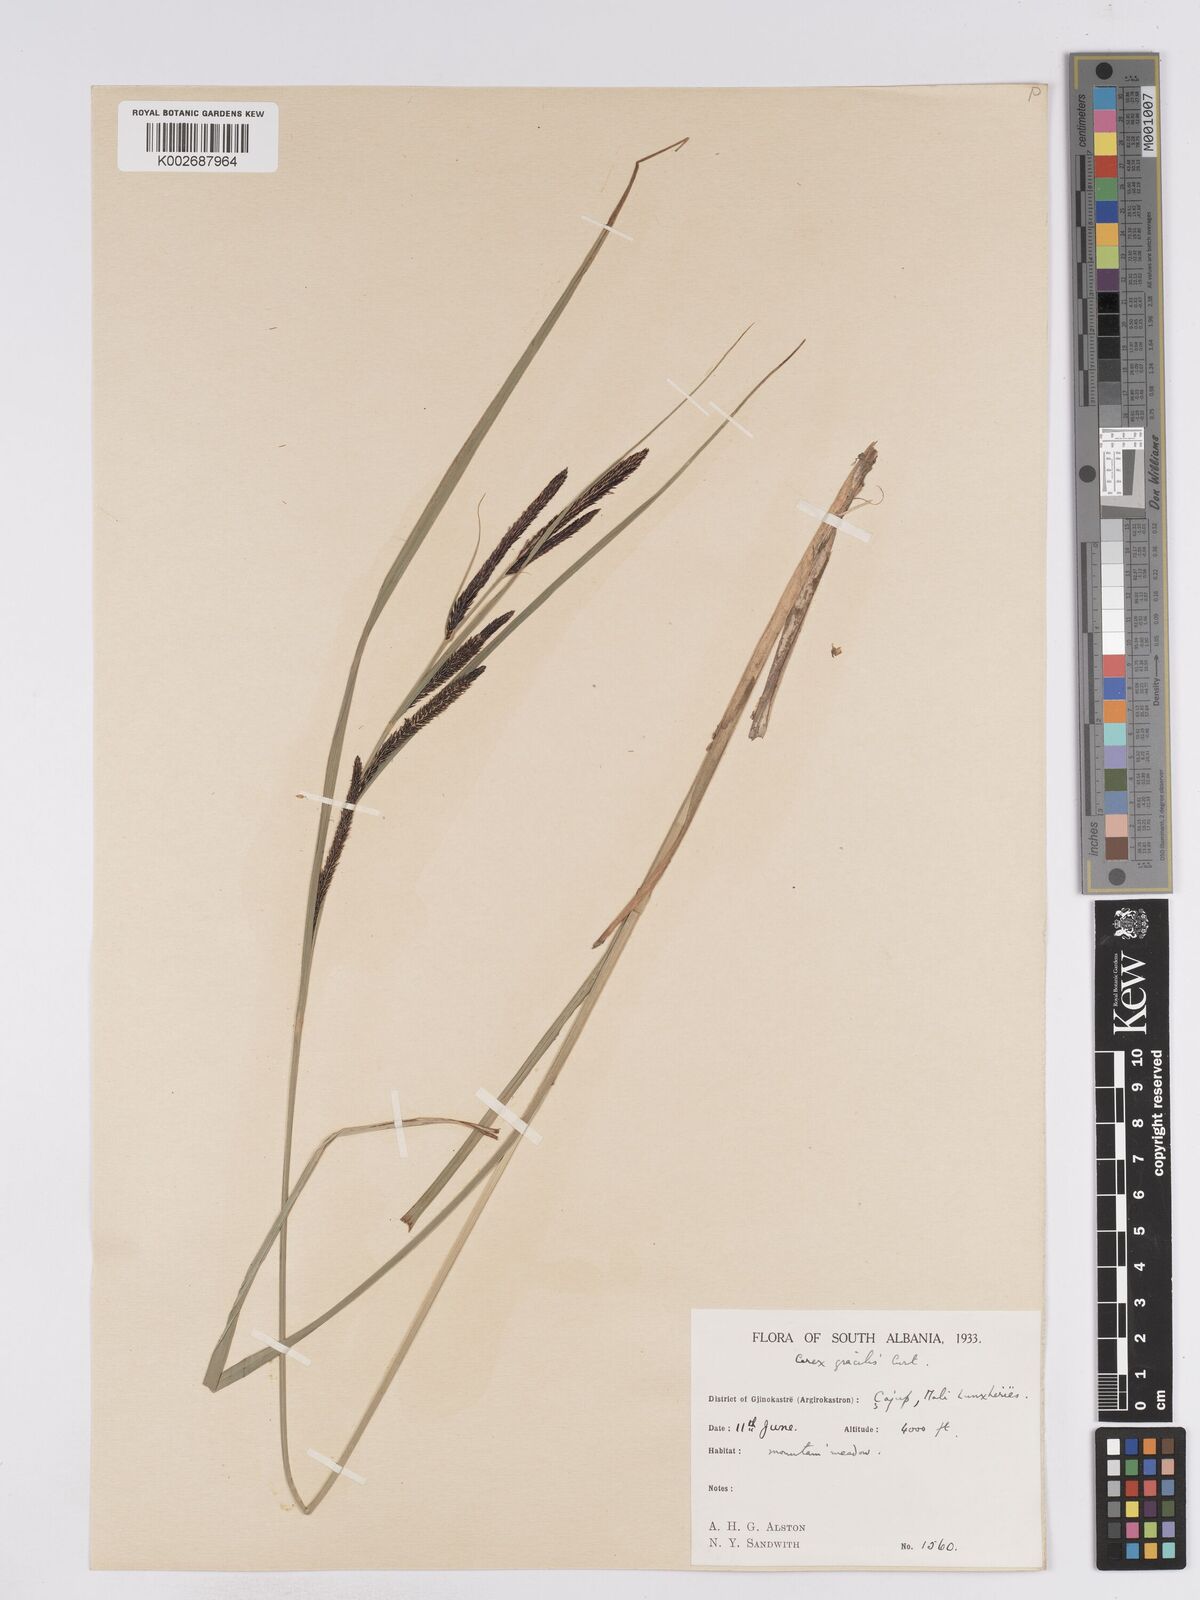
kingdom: Plantae
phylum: Tracheophyta
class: Liliopsida
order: Poales
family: Cyperaceae
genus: Carex
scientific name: Carex acuta
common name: Slender tufted-sedge
